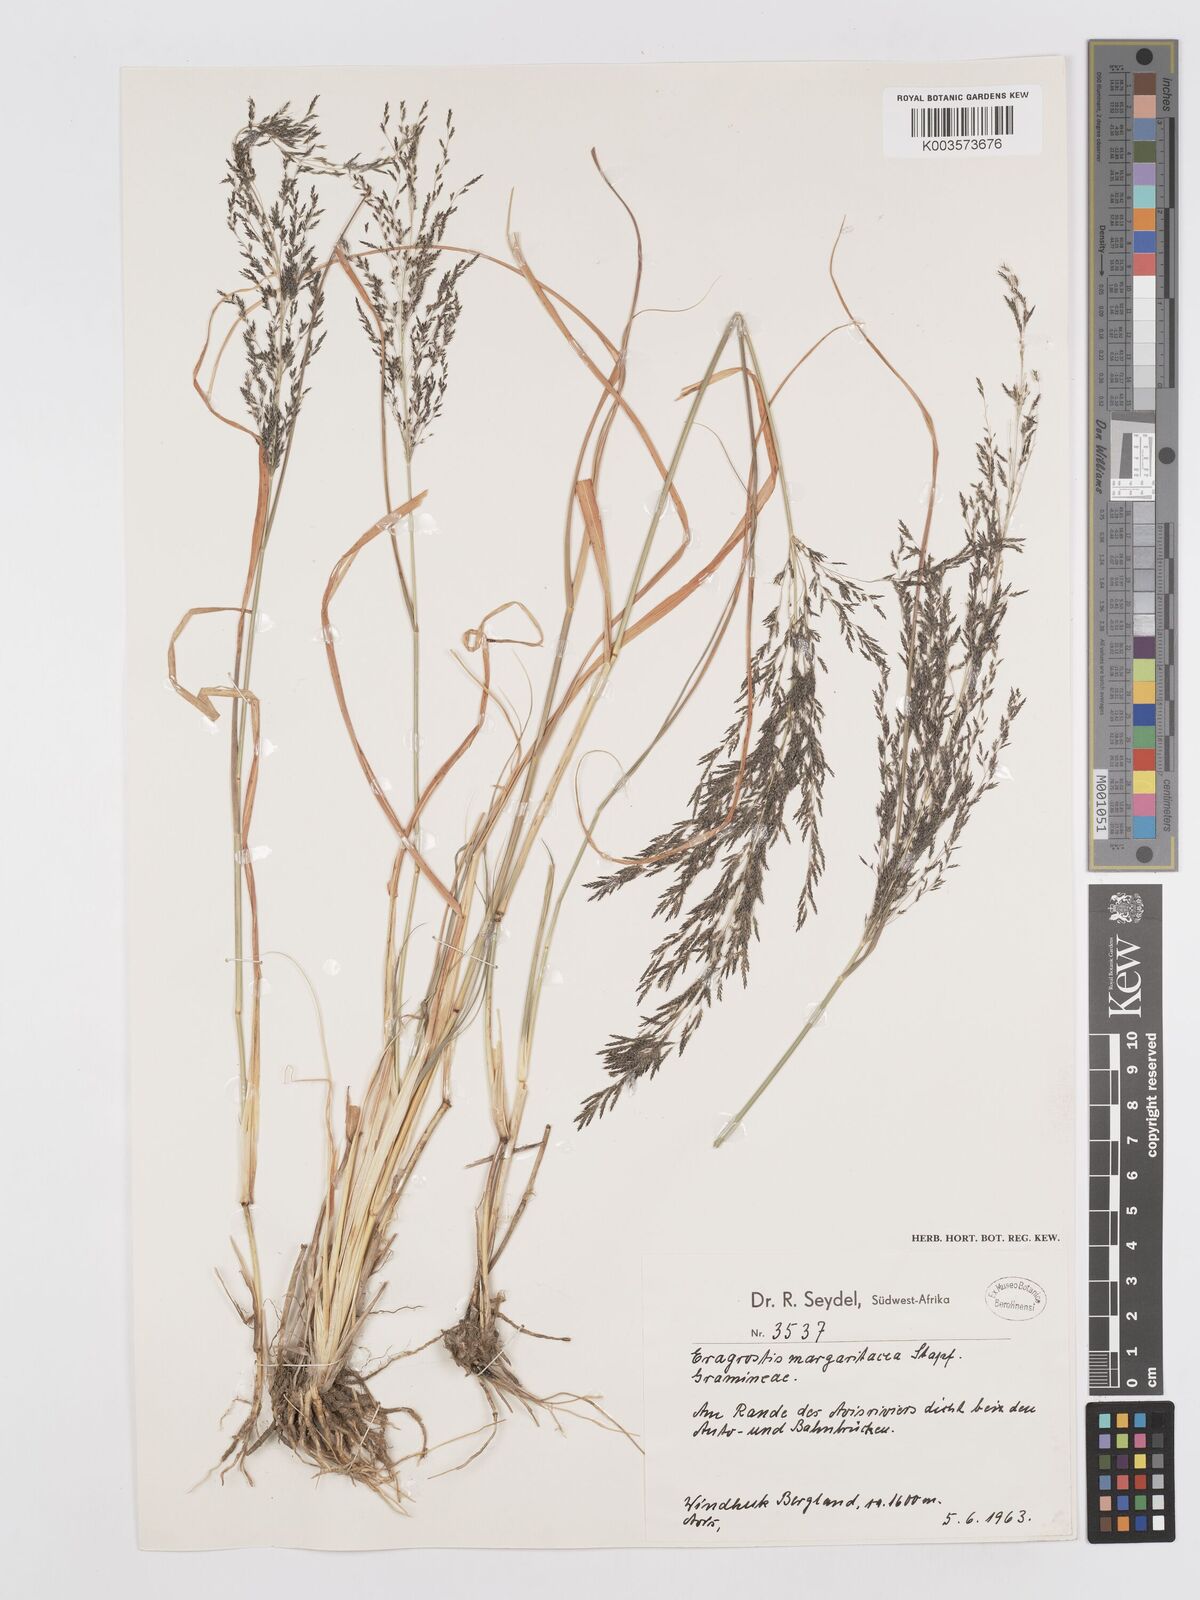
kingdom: Plantae
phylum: Tracheophyta
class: Liliopsida
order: Poales
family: Poaceae
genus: Eragrostis
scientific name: Eragrostis rotifer
